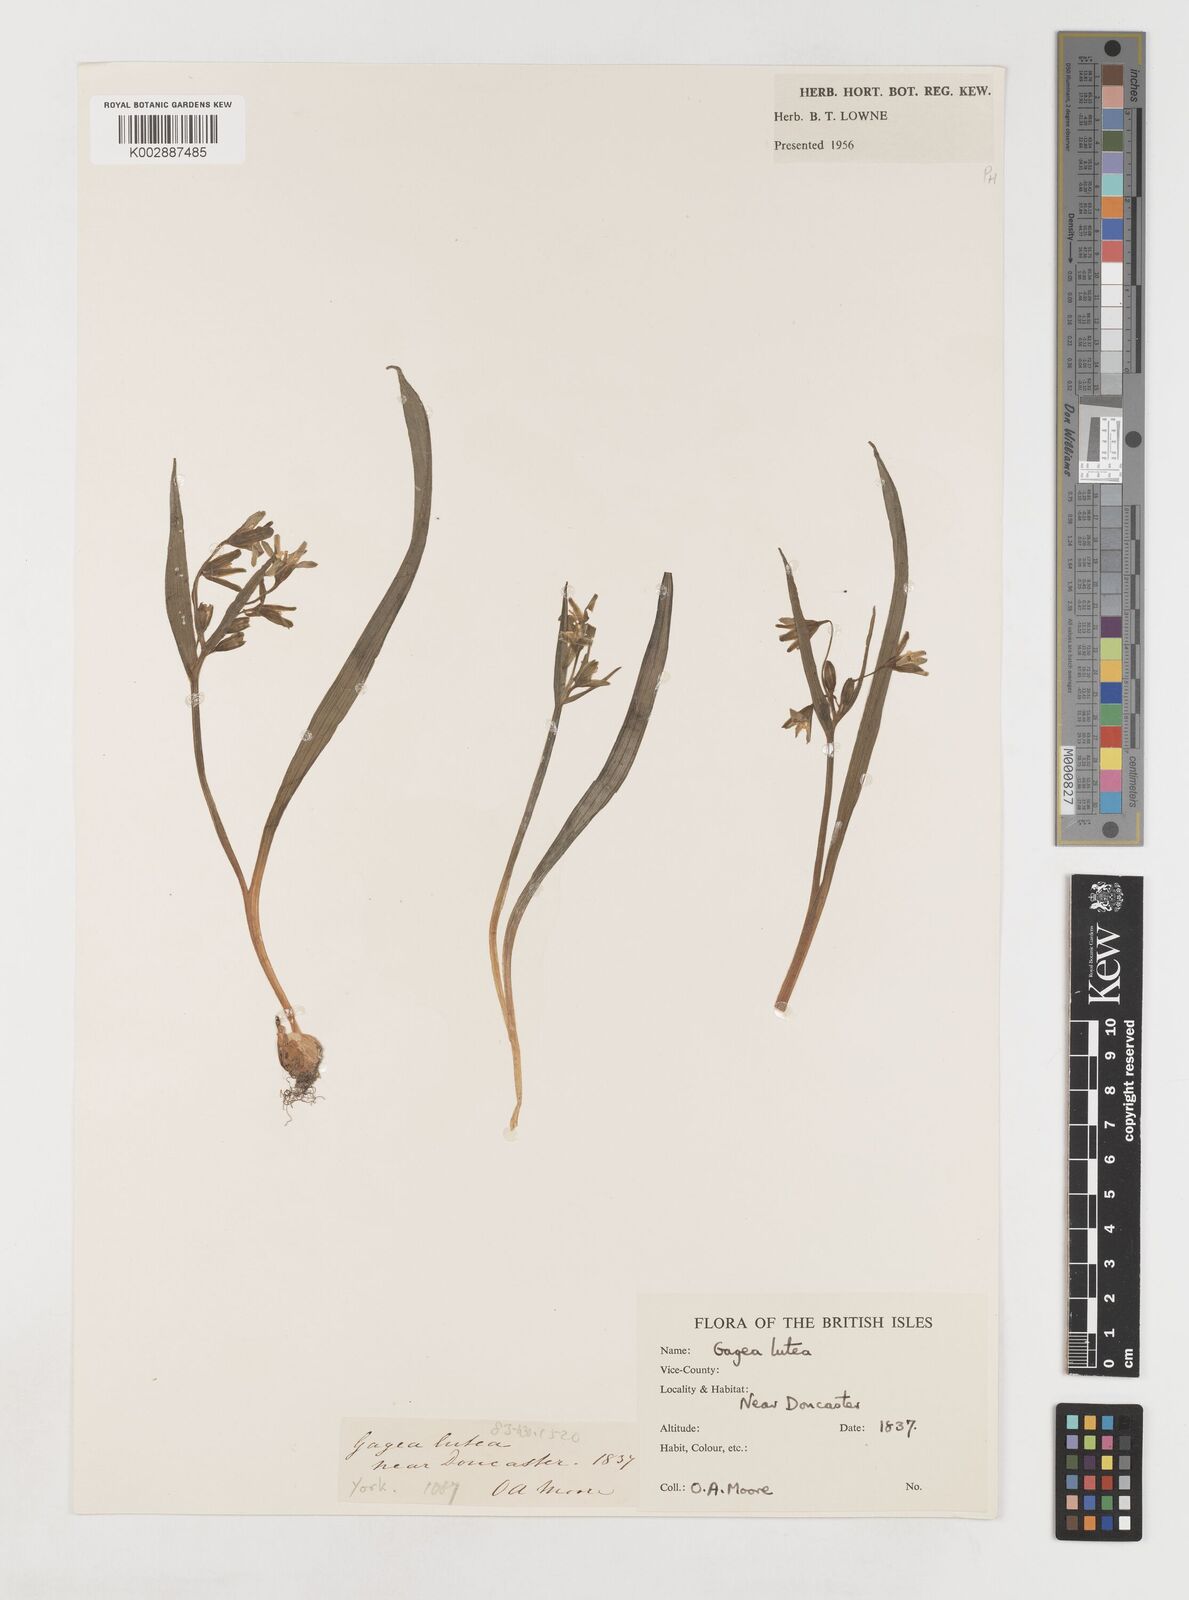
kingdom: Plantae
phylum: Tracheophyta
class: Liliopsida
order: Liliales
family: Liliaceae
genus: Gagea
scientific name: Gagea lutea
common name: Yellow star-of-bethlehem
